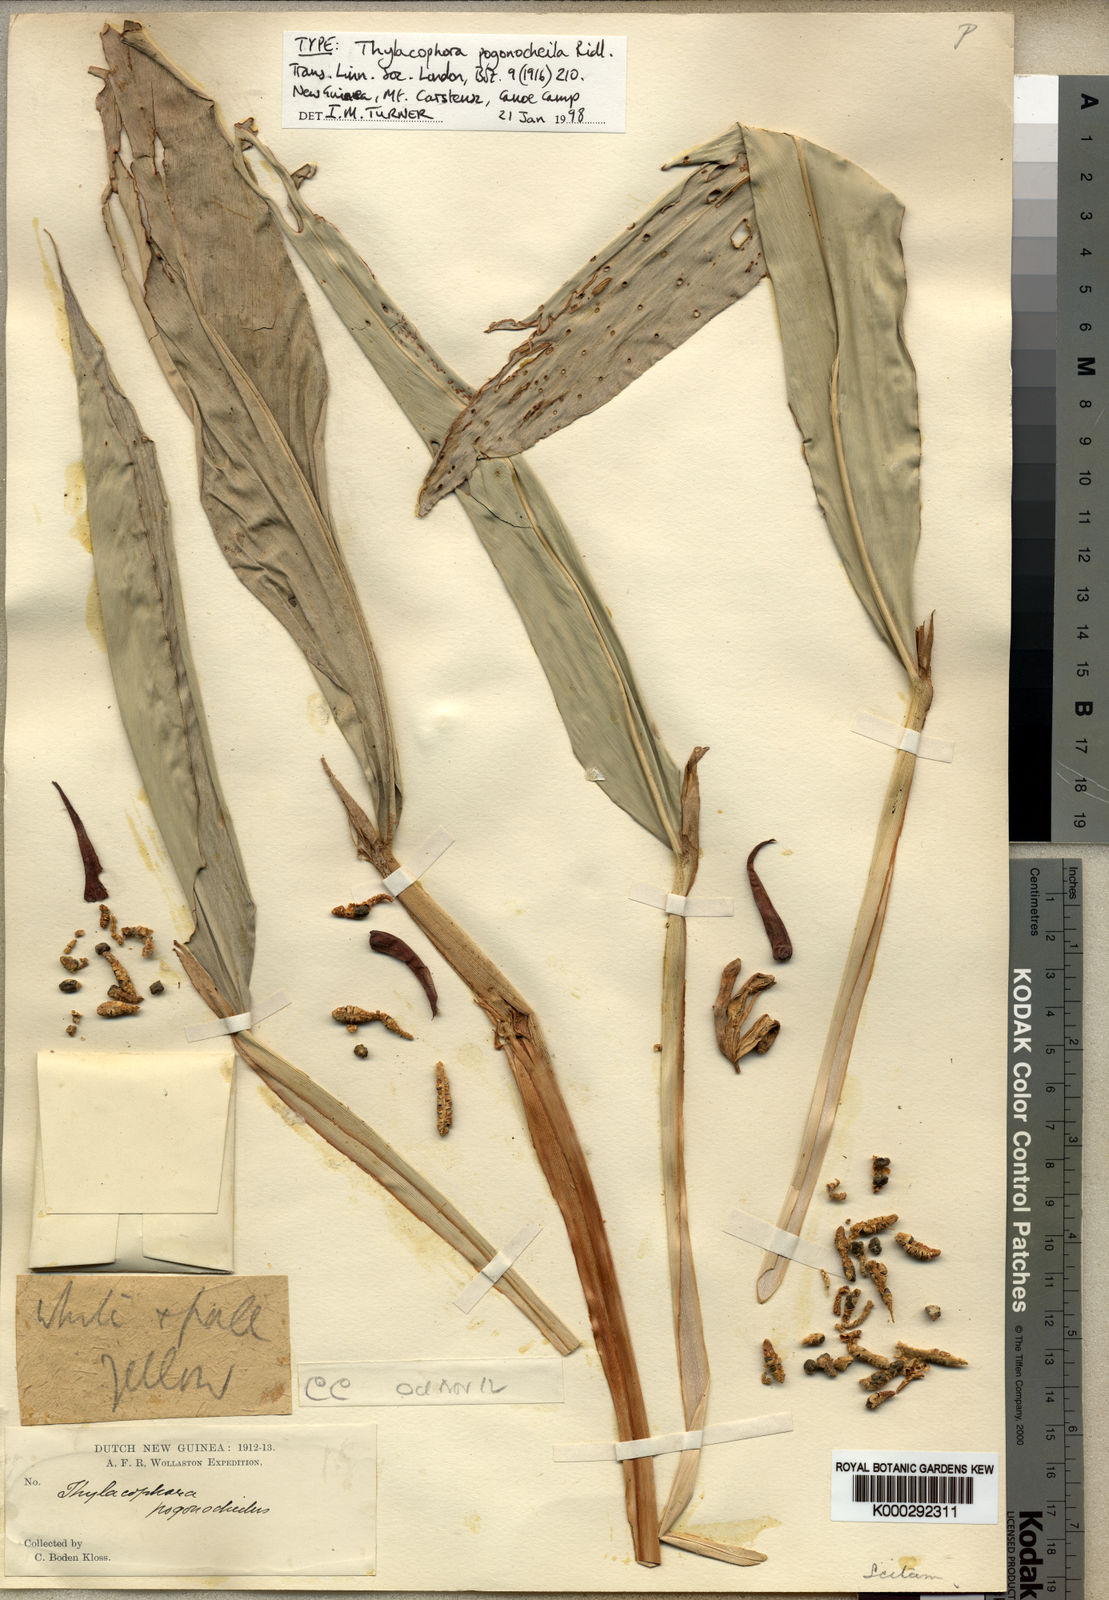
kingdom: Plantae
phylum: Tracheophyta
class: Liliopsida
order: Zingiberales
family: Zingiberaceae
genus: Riedelia
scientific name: Riedelia lanata
